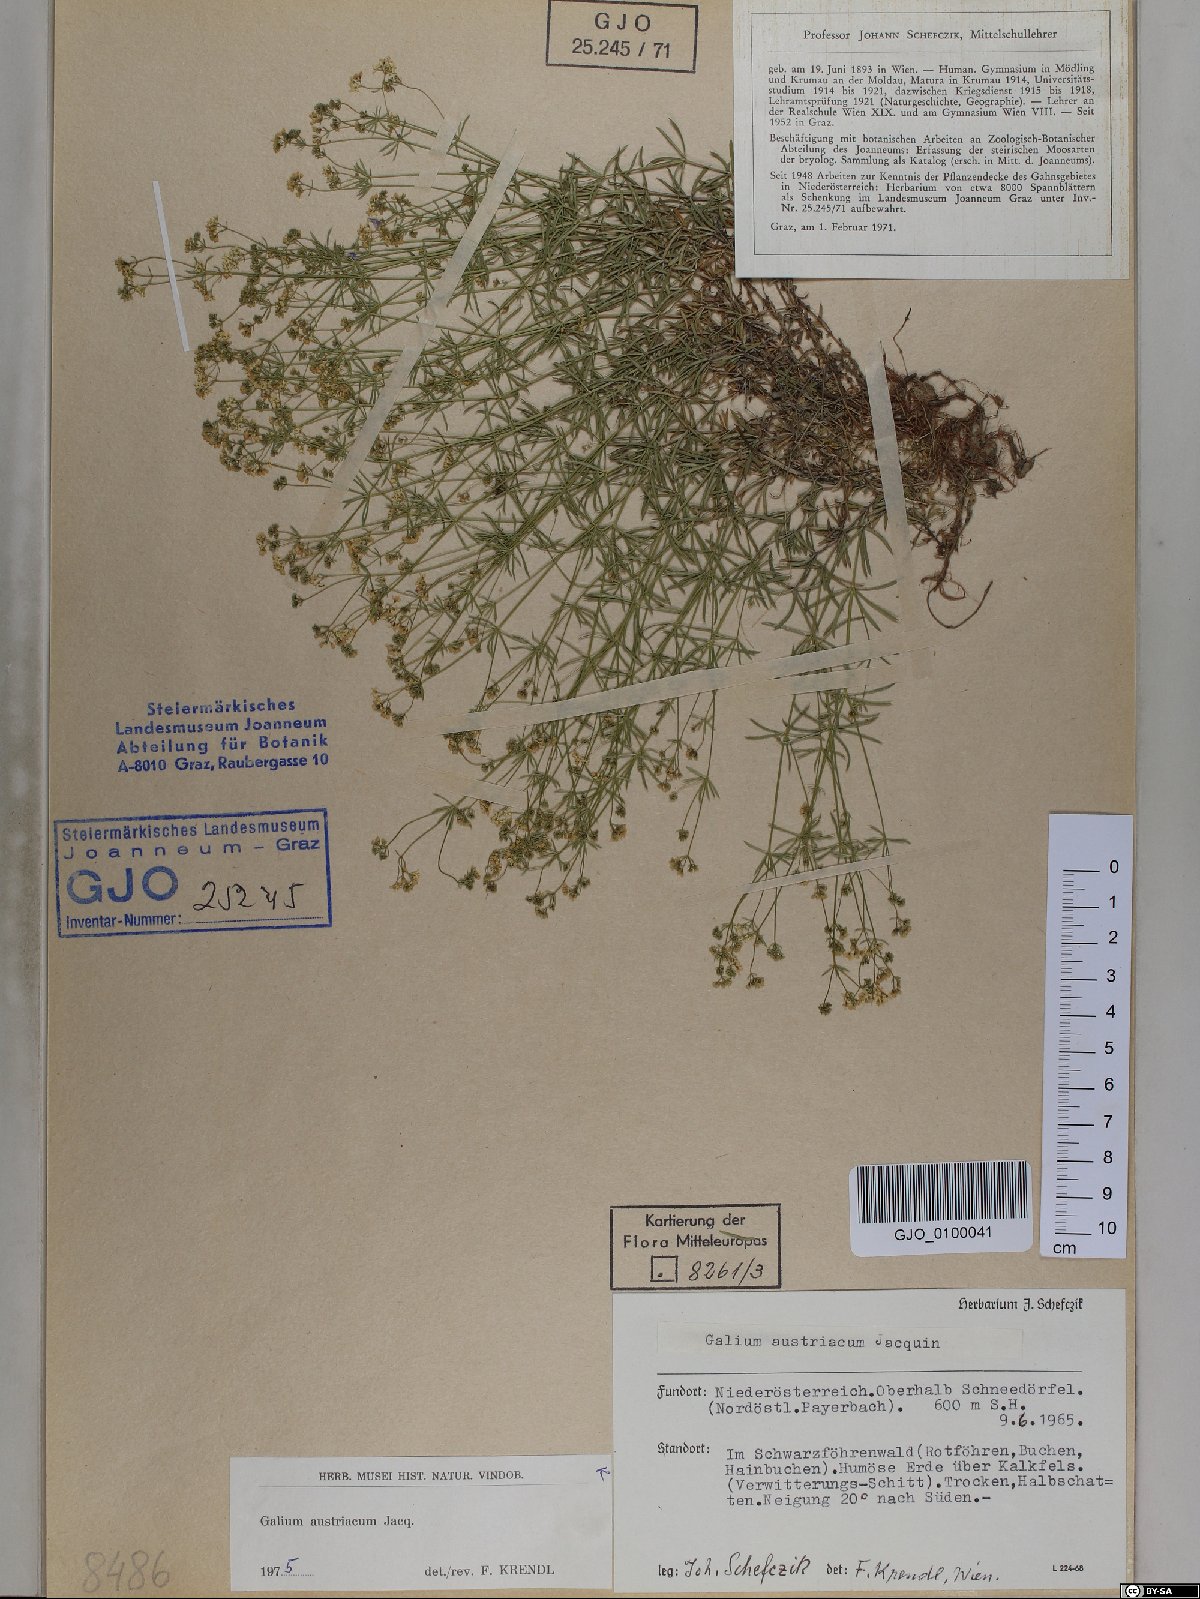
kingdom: Plantae
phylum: Tracheophyta
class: Magnoliopsida
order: Gentianales
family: Rubiaceae
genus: Galium
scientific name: Galium austriacum
